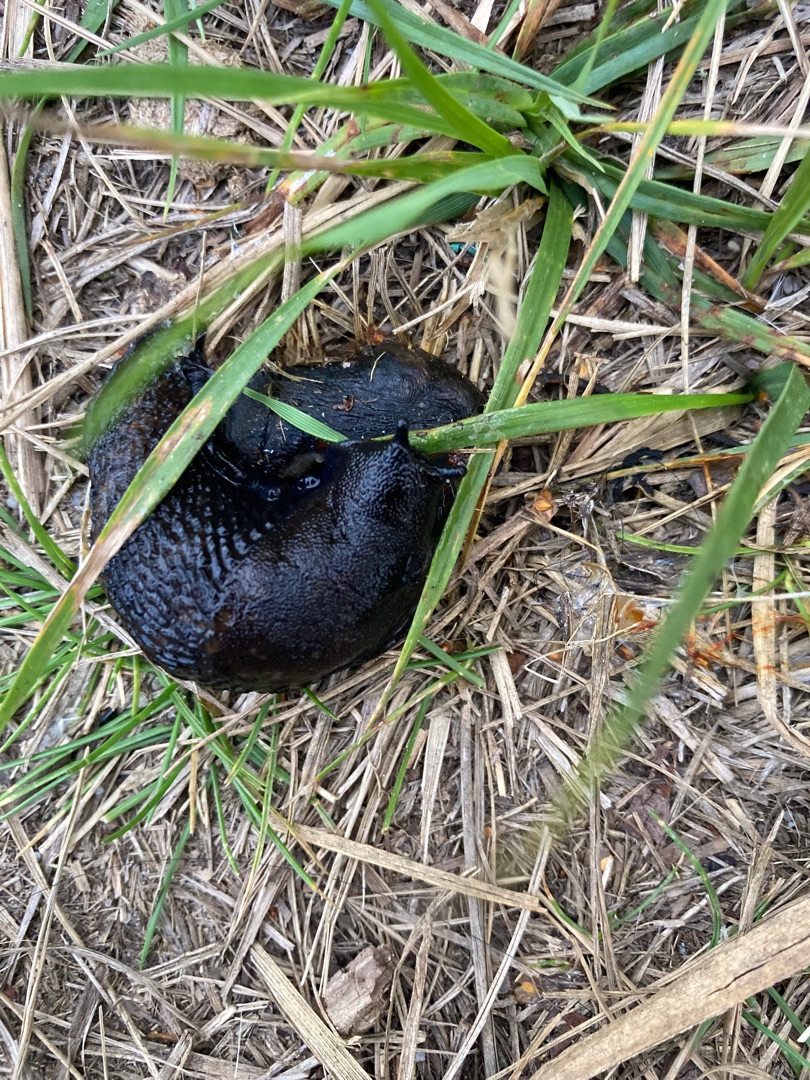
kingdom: Animalia
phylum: Mollusca
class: Gastropoda
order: Stylommatophora
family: Arionidae
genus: Arion
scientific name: Arion ater
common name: Sort skovsnegl
